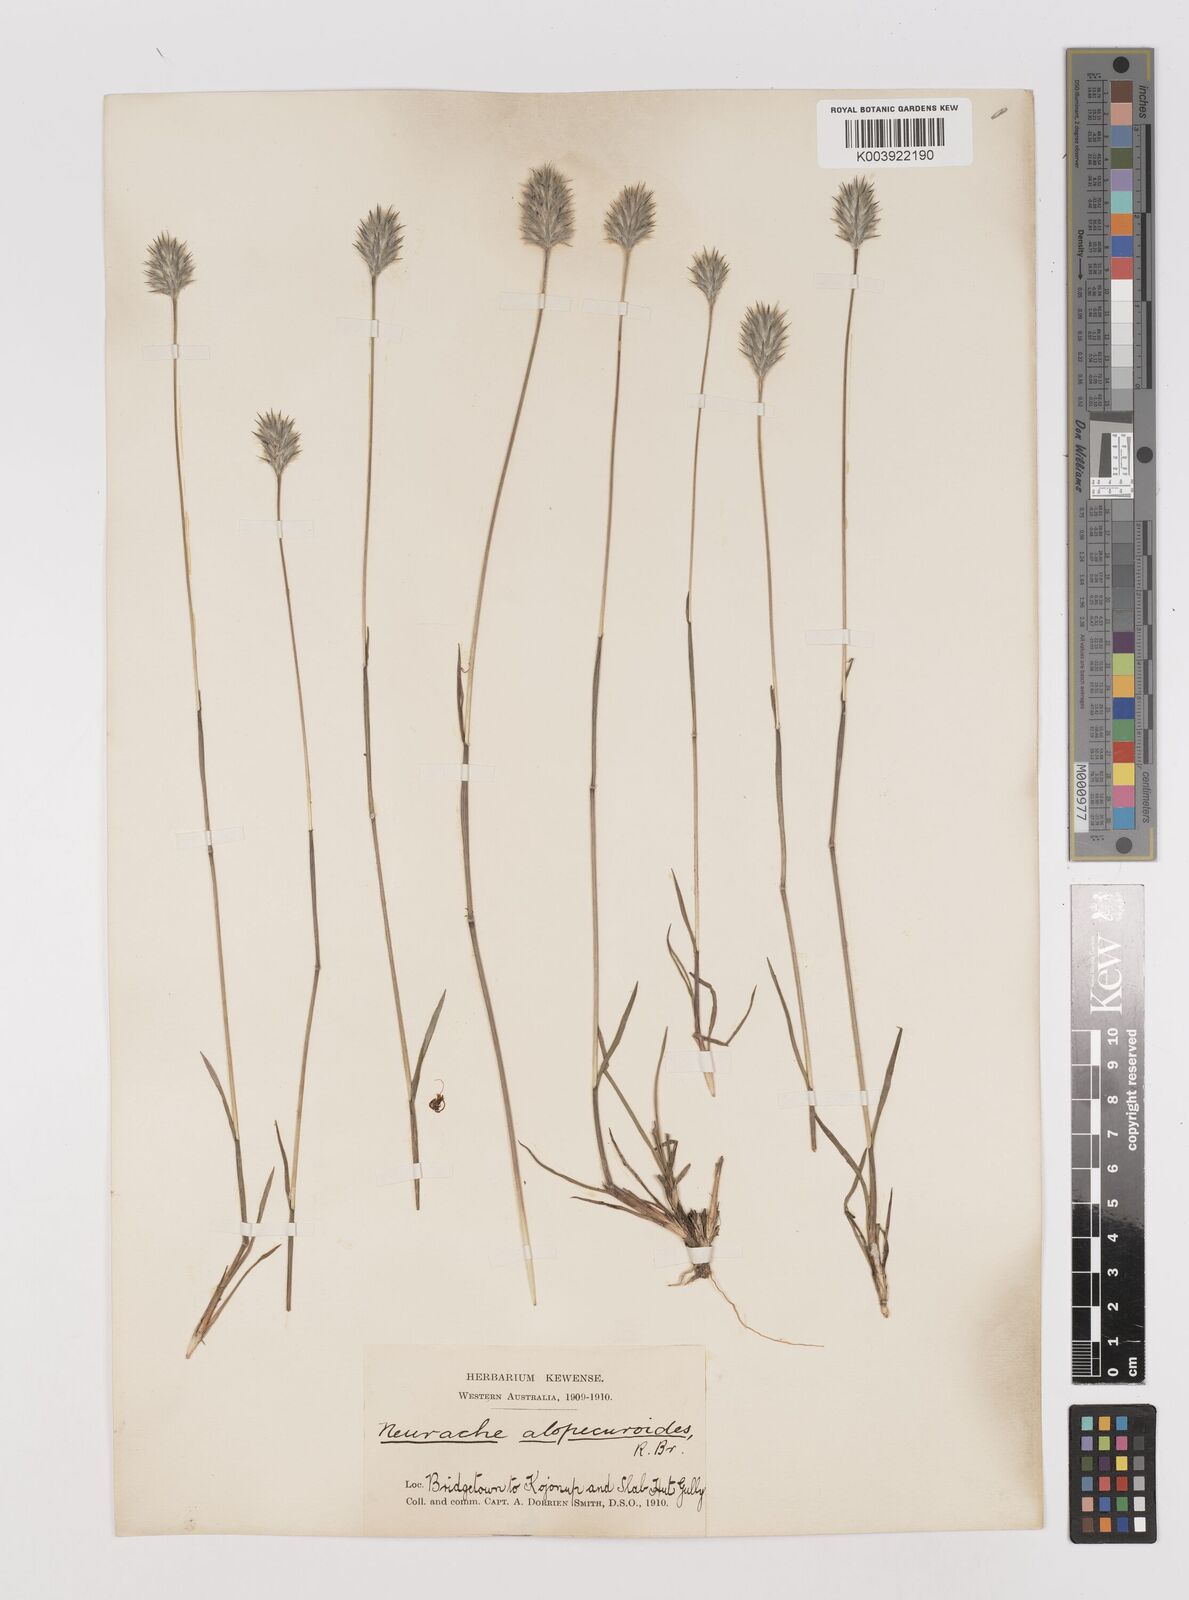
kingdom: Plantae
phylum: Tracheophyta
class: Liliopsida
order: Poales
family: Poaceae
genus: Neurachne
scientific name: Neurachne alopecuroidea
